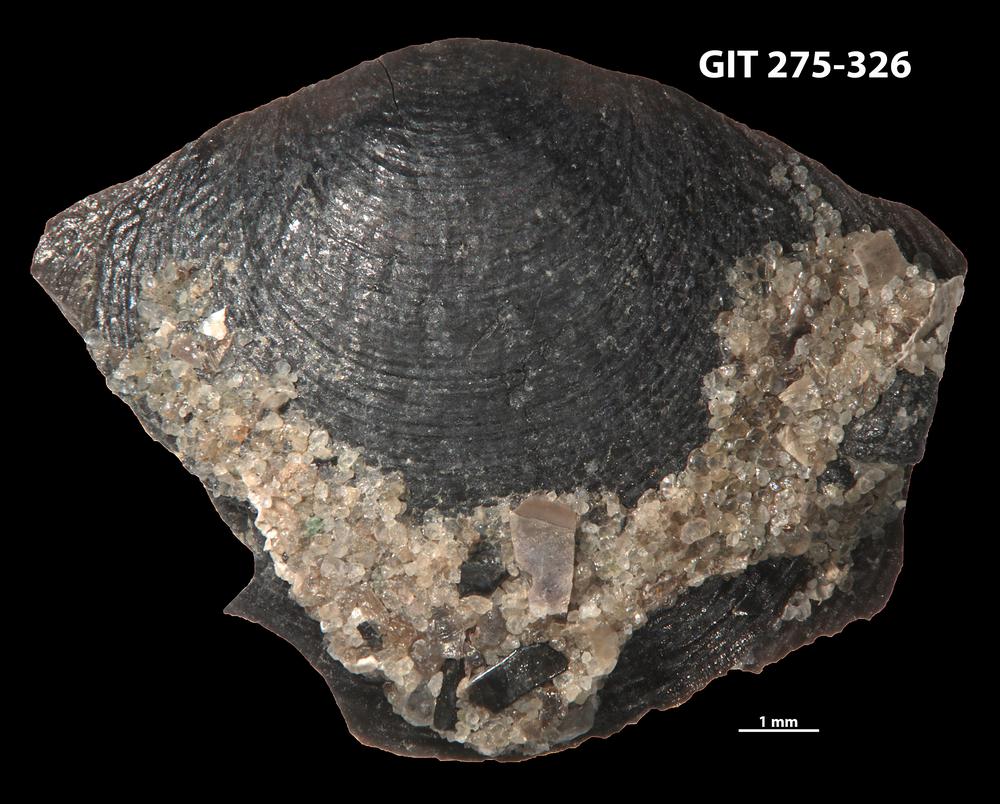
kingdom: Animalia
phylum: Brachiopoda
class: Lingulata
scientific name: Lingulata
